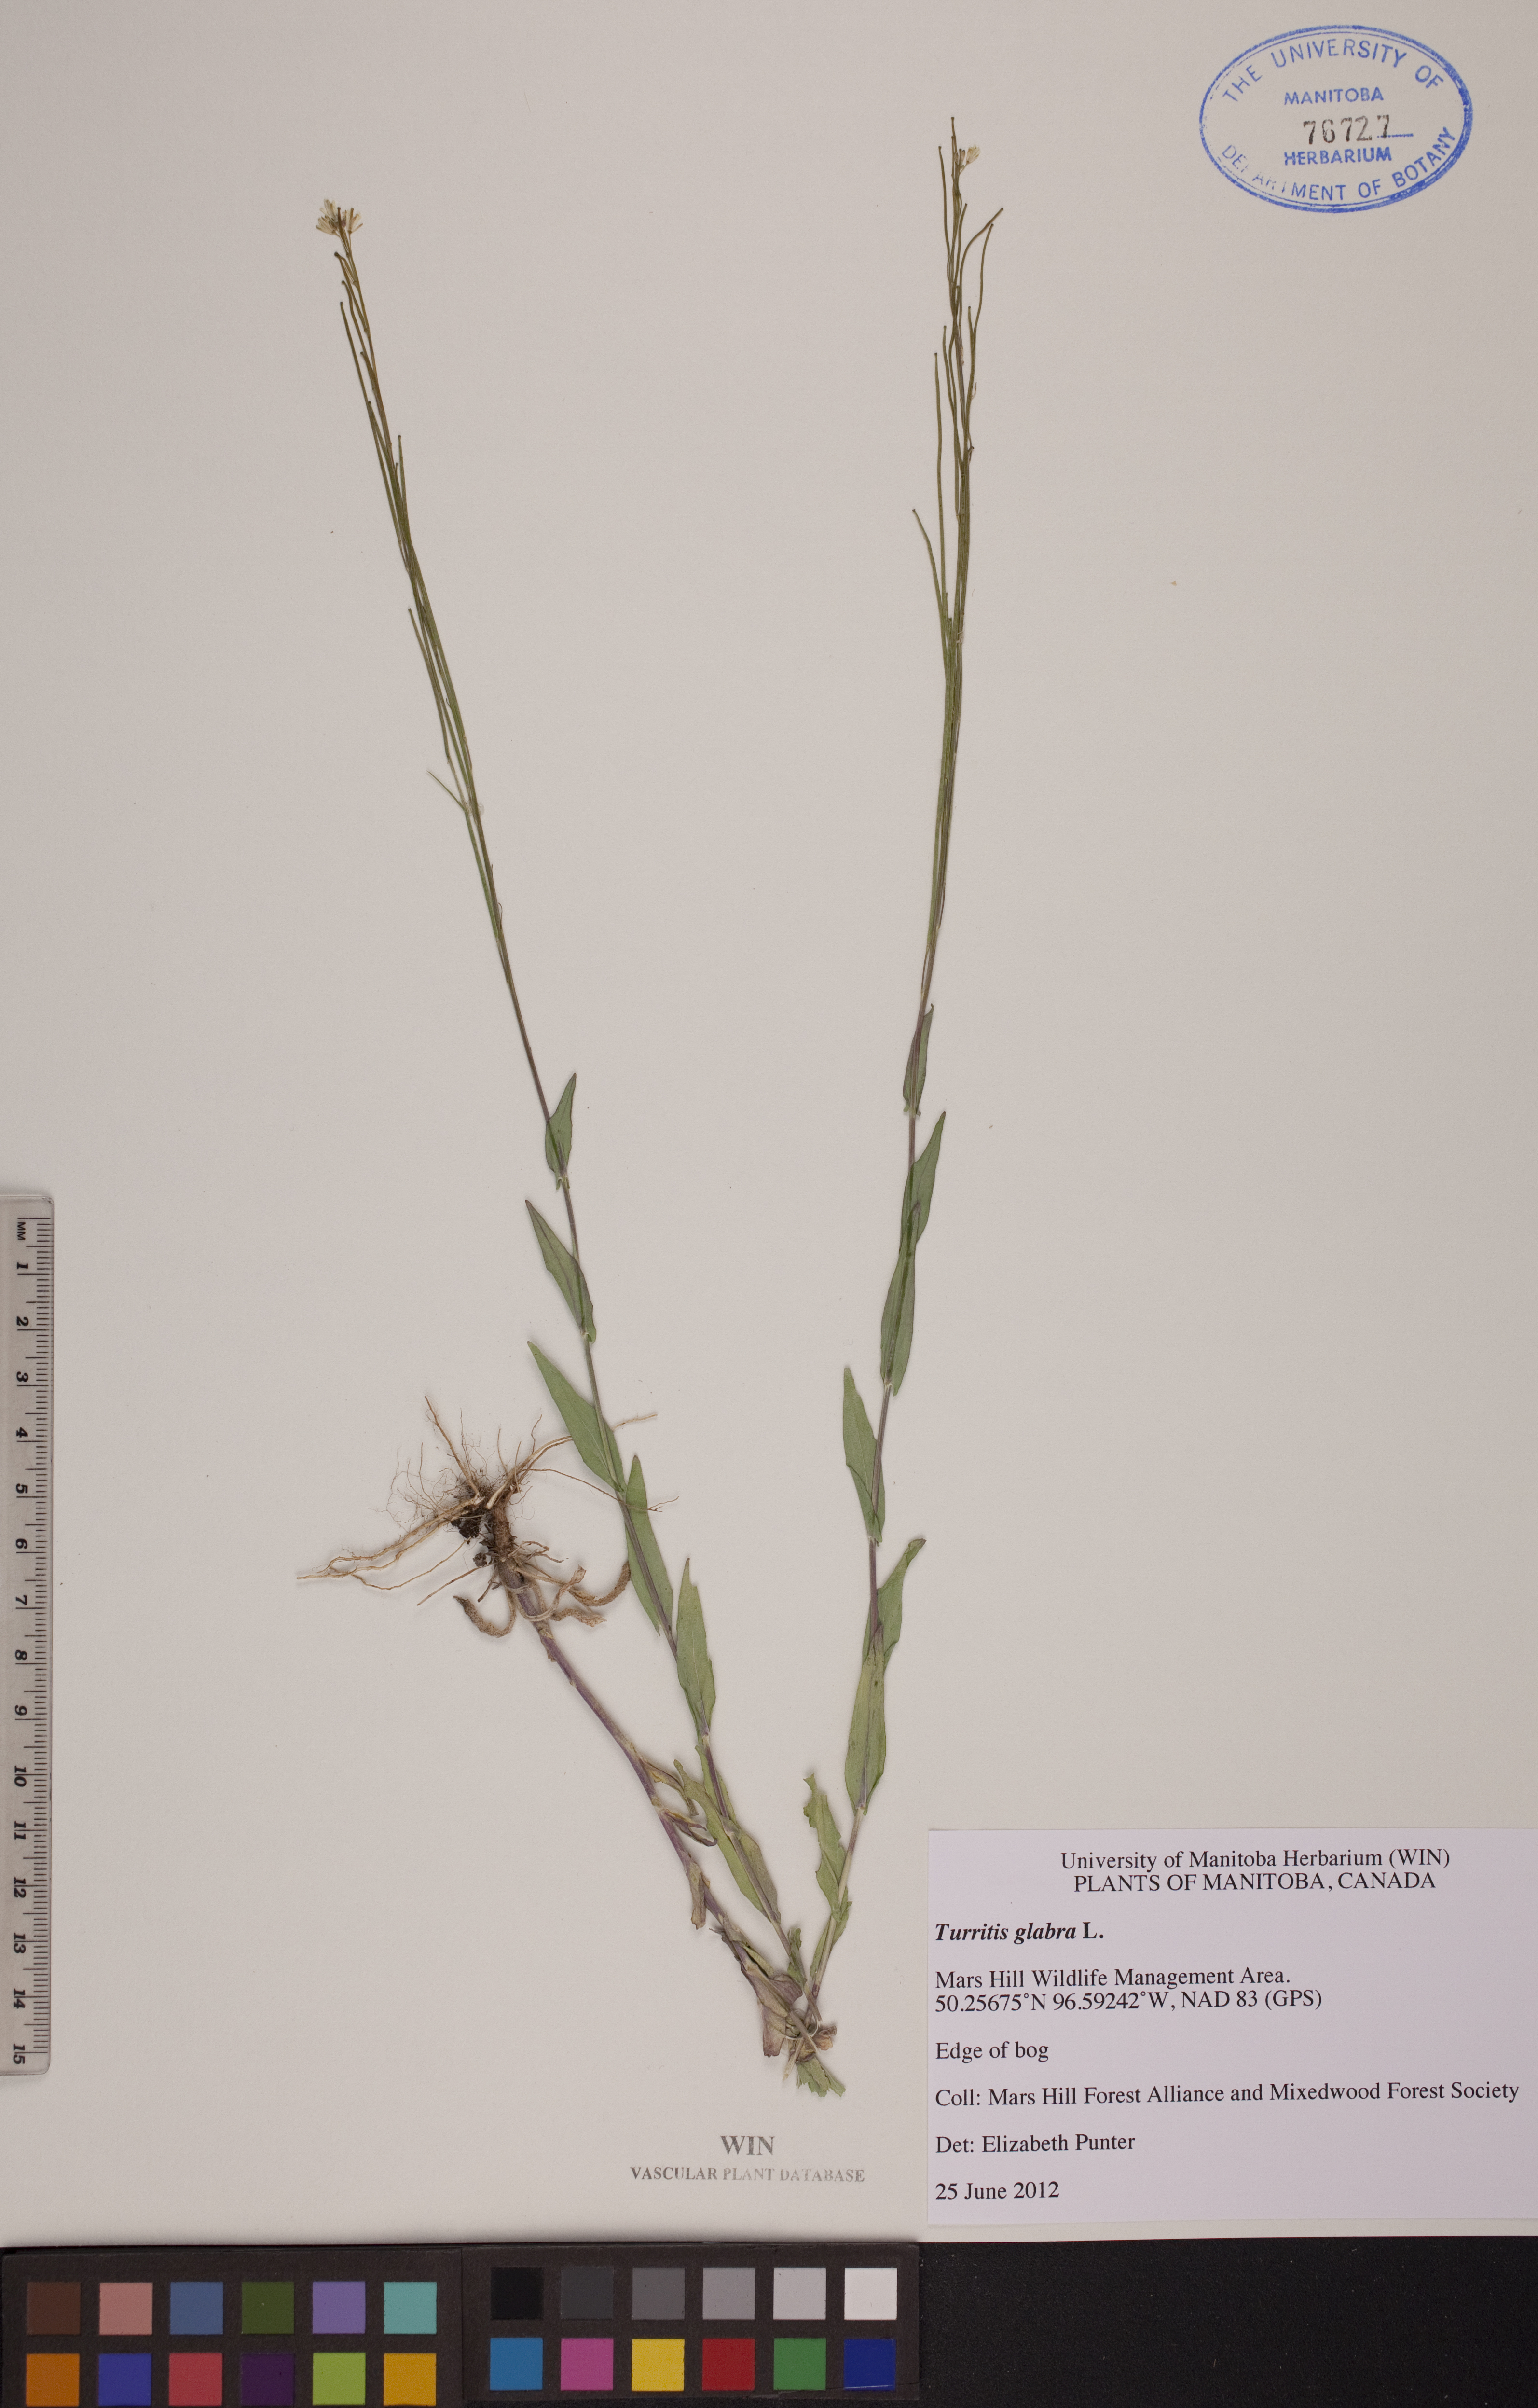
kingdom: Plantae
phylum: Tracheophyta
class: Magnoliopsida
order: Brassicales
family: Brassicaceae
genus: Turritis
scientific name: Turritis glabra
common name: Tower rockcress
